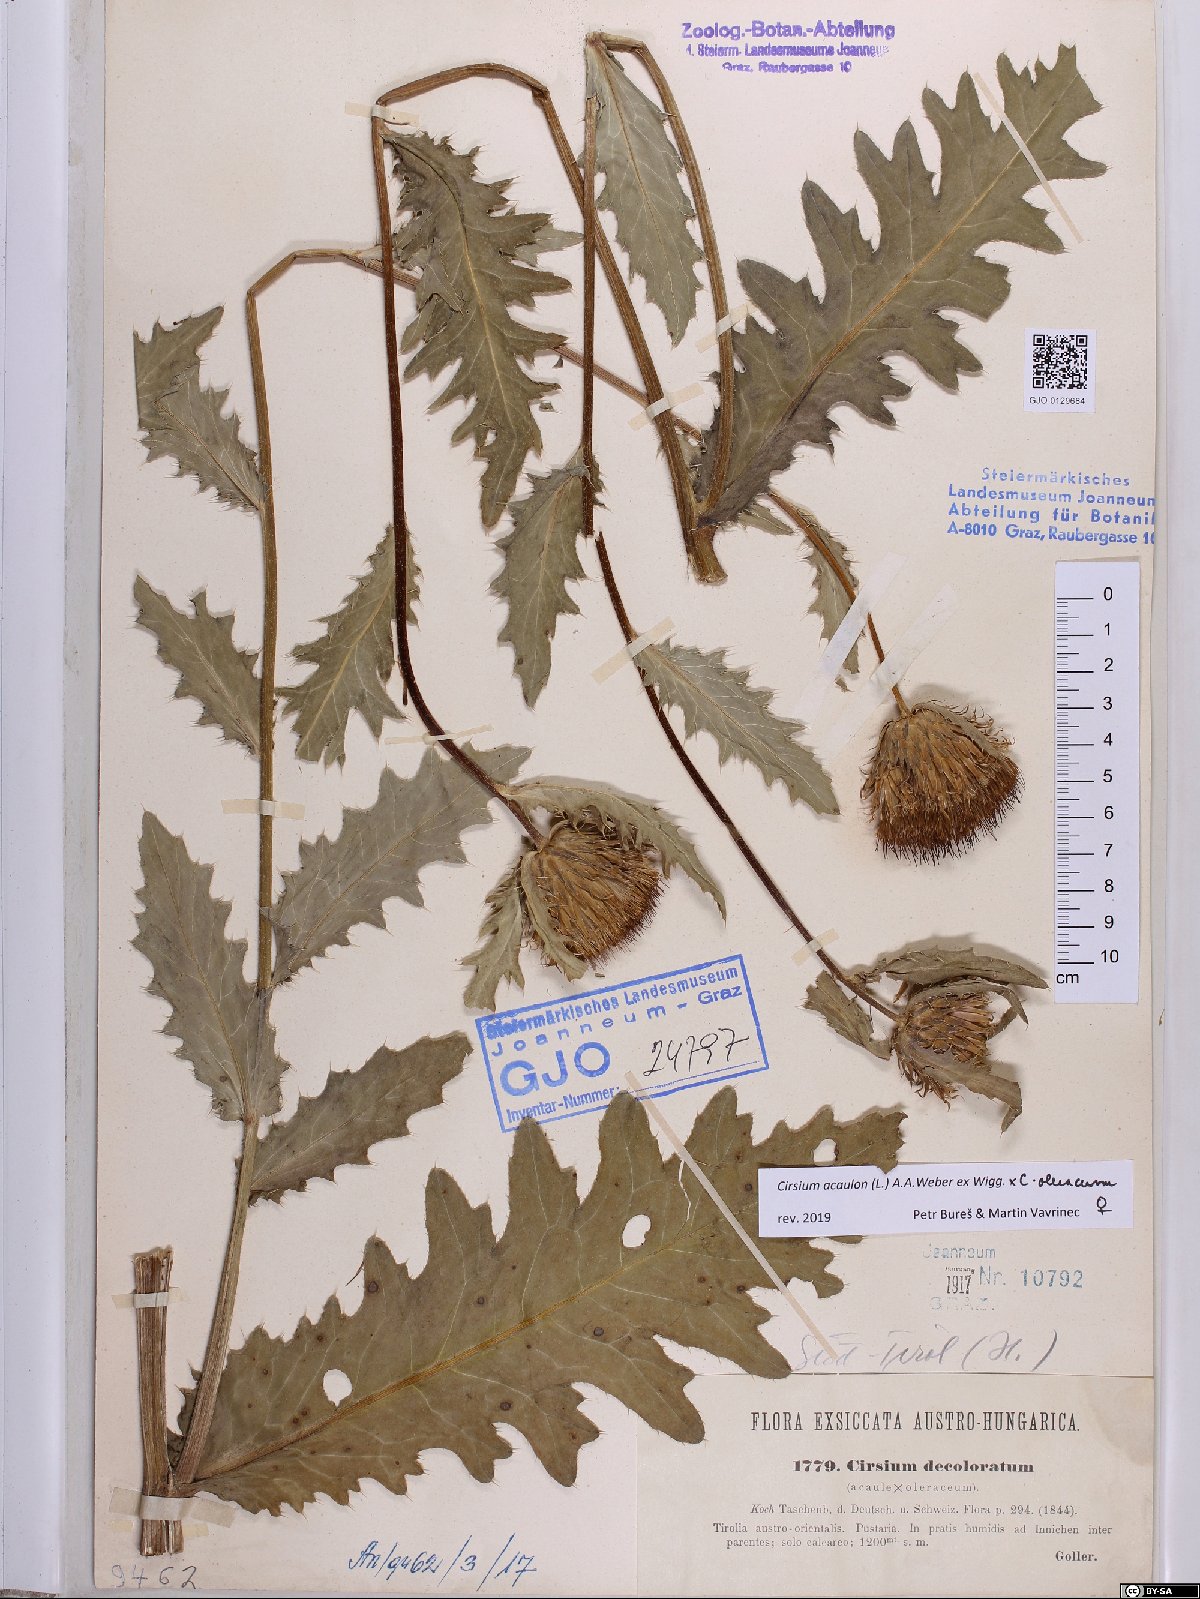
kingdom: Plantae
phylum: Tracheophyta
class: Magnoliopsida
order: Asterales
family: Asteraceae
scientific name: Asteraceae
